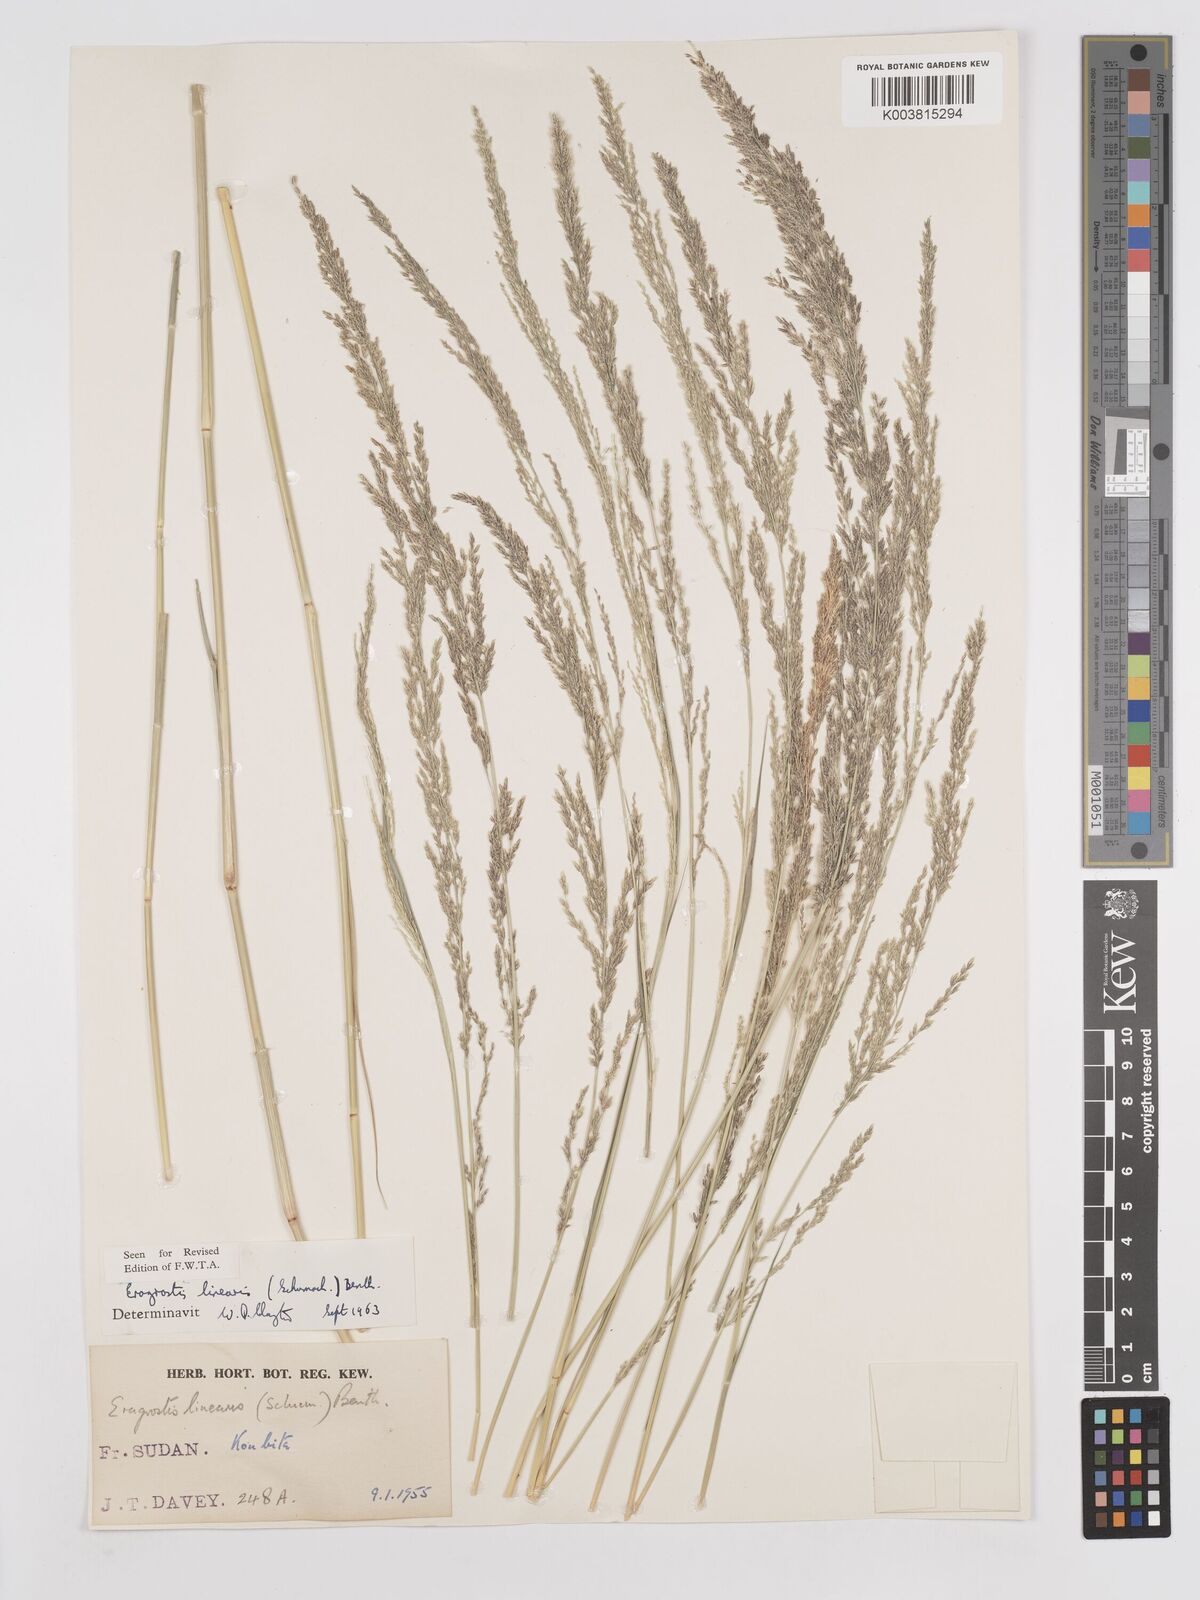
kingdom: Plantae
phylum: Tracheophyta
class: Liliopsida
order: Poales
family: Poaceae
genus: Eragrostis
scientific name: Eragrostis prolifera
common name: Dominican lovegrass
